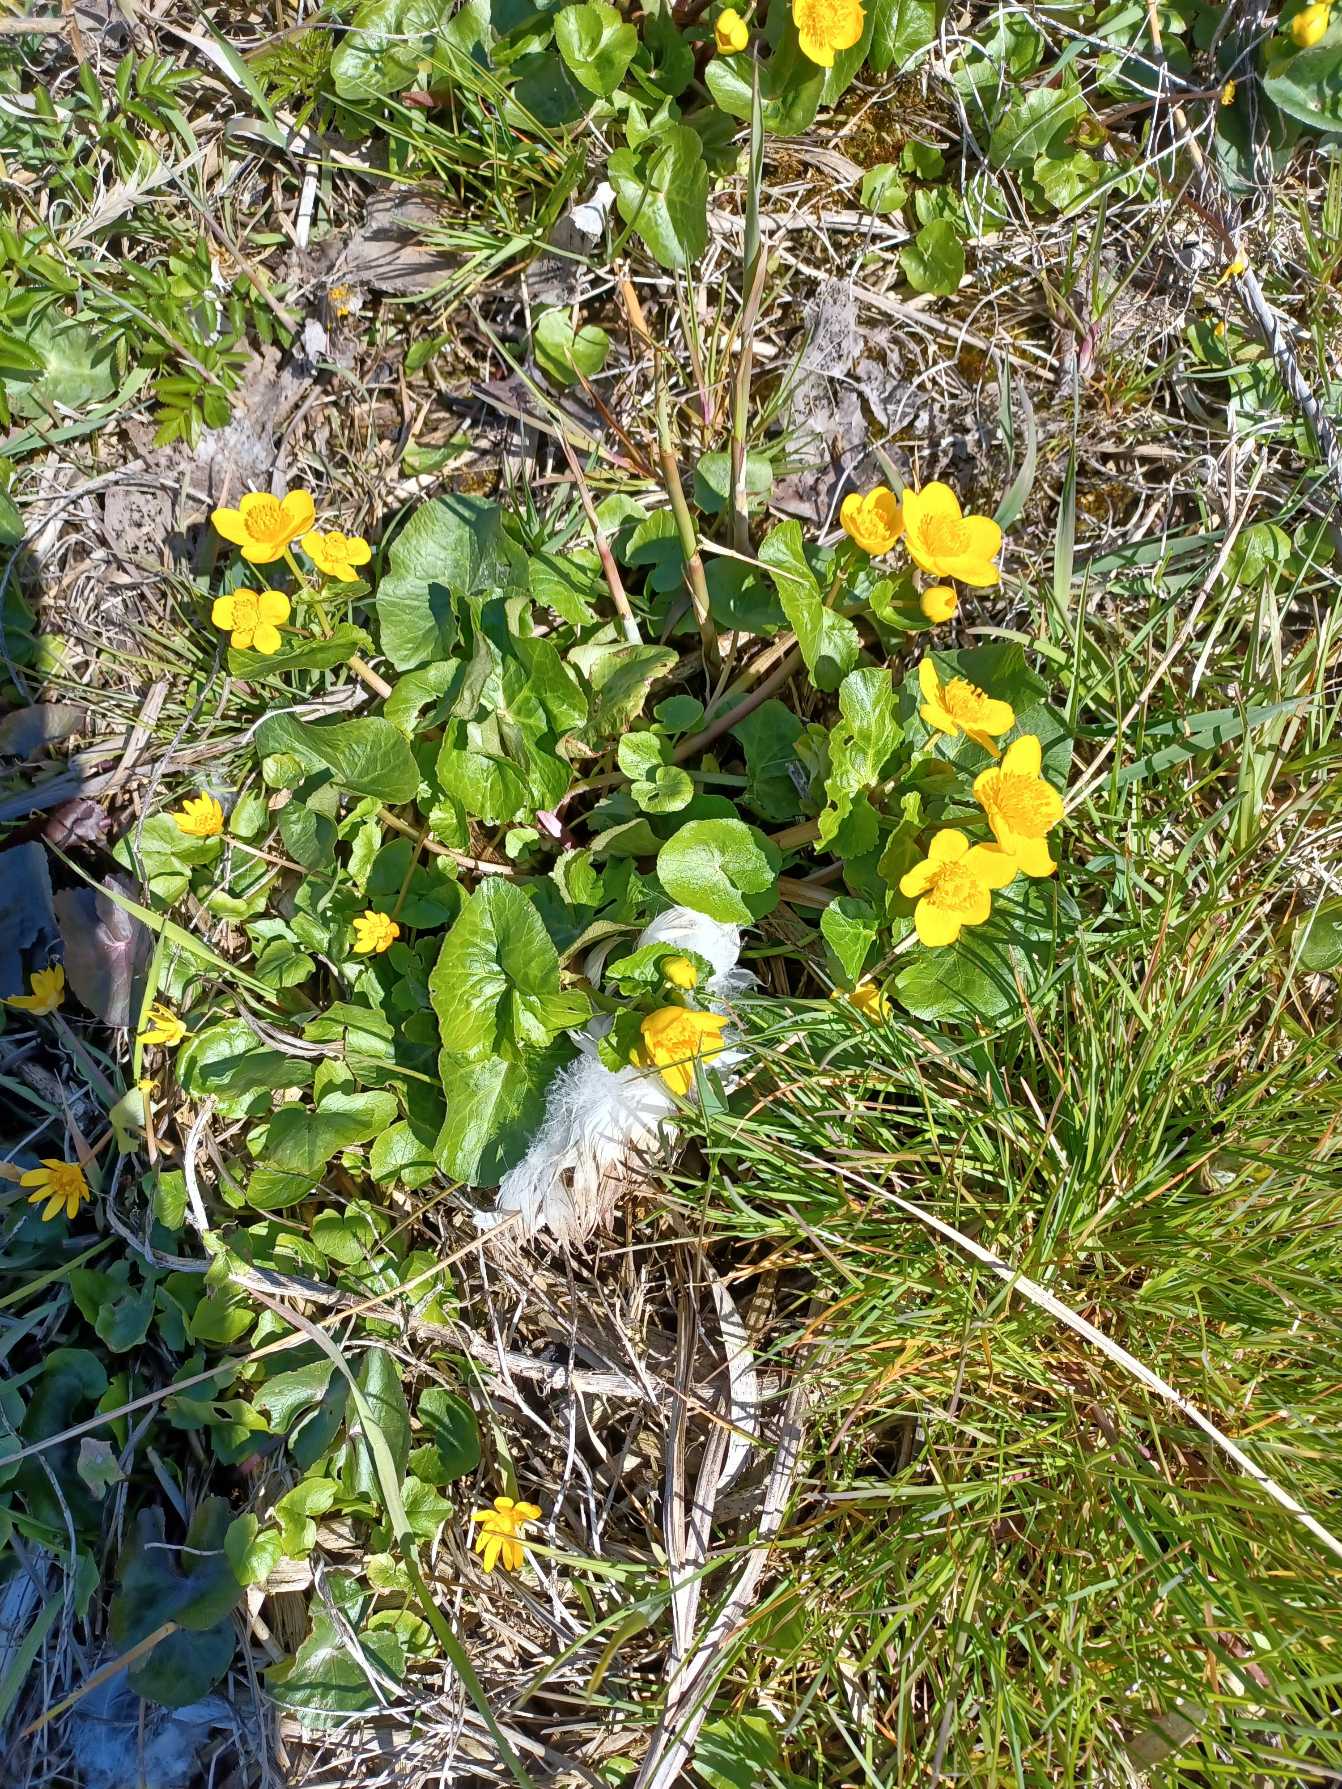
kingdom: Plantae
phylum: Tracheophyta
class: Magnoliopsida
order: Ranunculales
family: Ranunculaceae
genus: Caltha
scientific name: Caltha palustris
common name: Eng-kabbeleje
